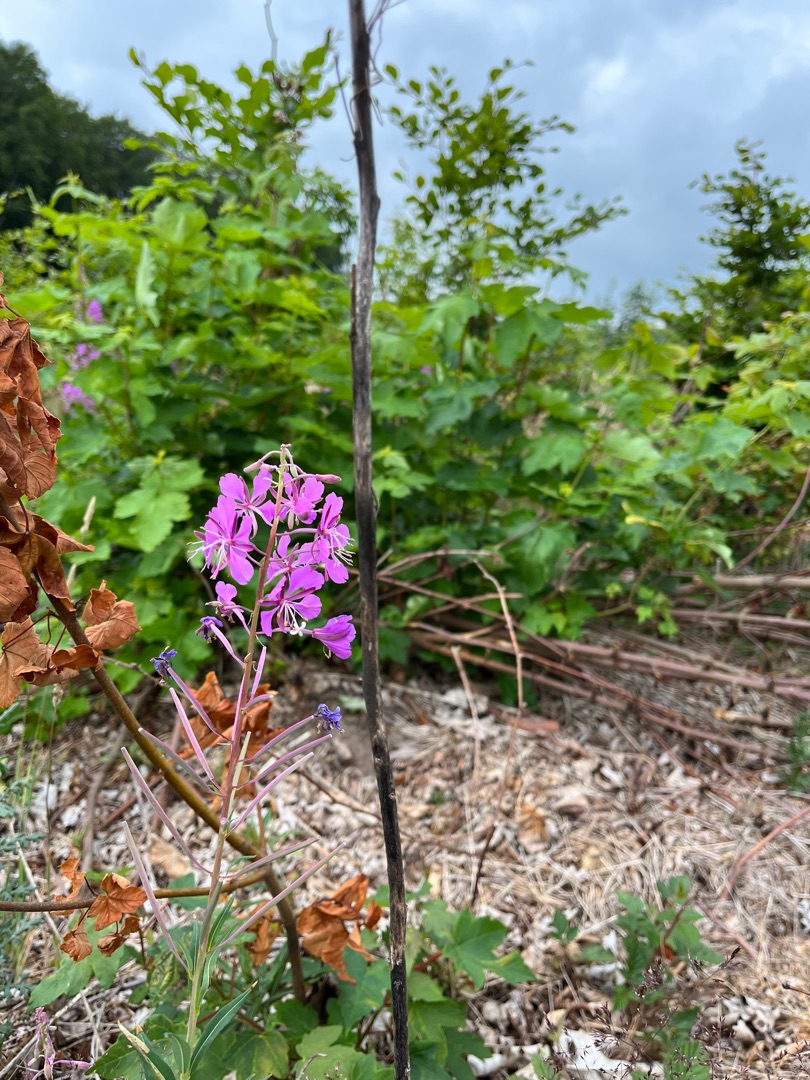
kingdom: Plantae
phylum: Tracheophyta
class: Magnoliopsida
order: Myrtales
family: Onagraceae
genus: Chamaenerion
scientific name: Chamaenerion angustifolium
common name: Gederams
